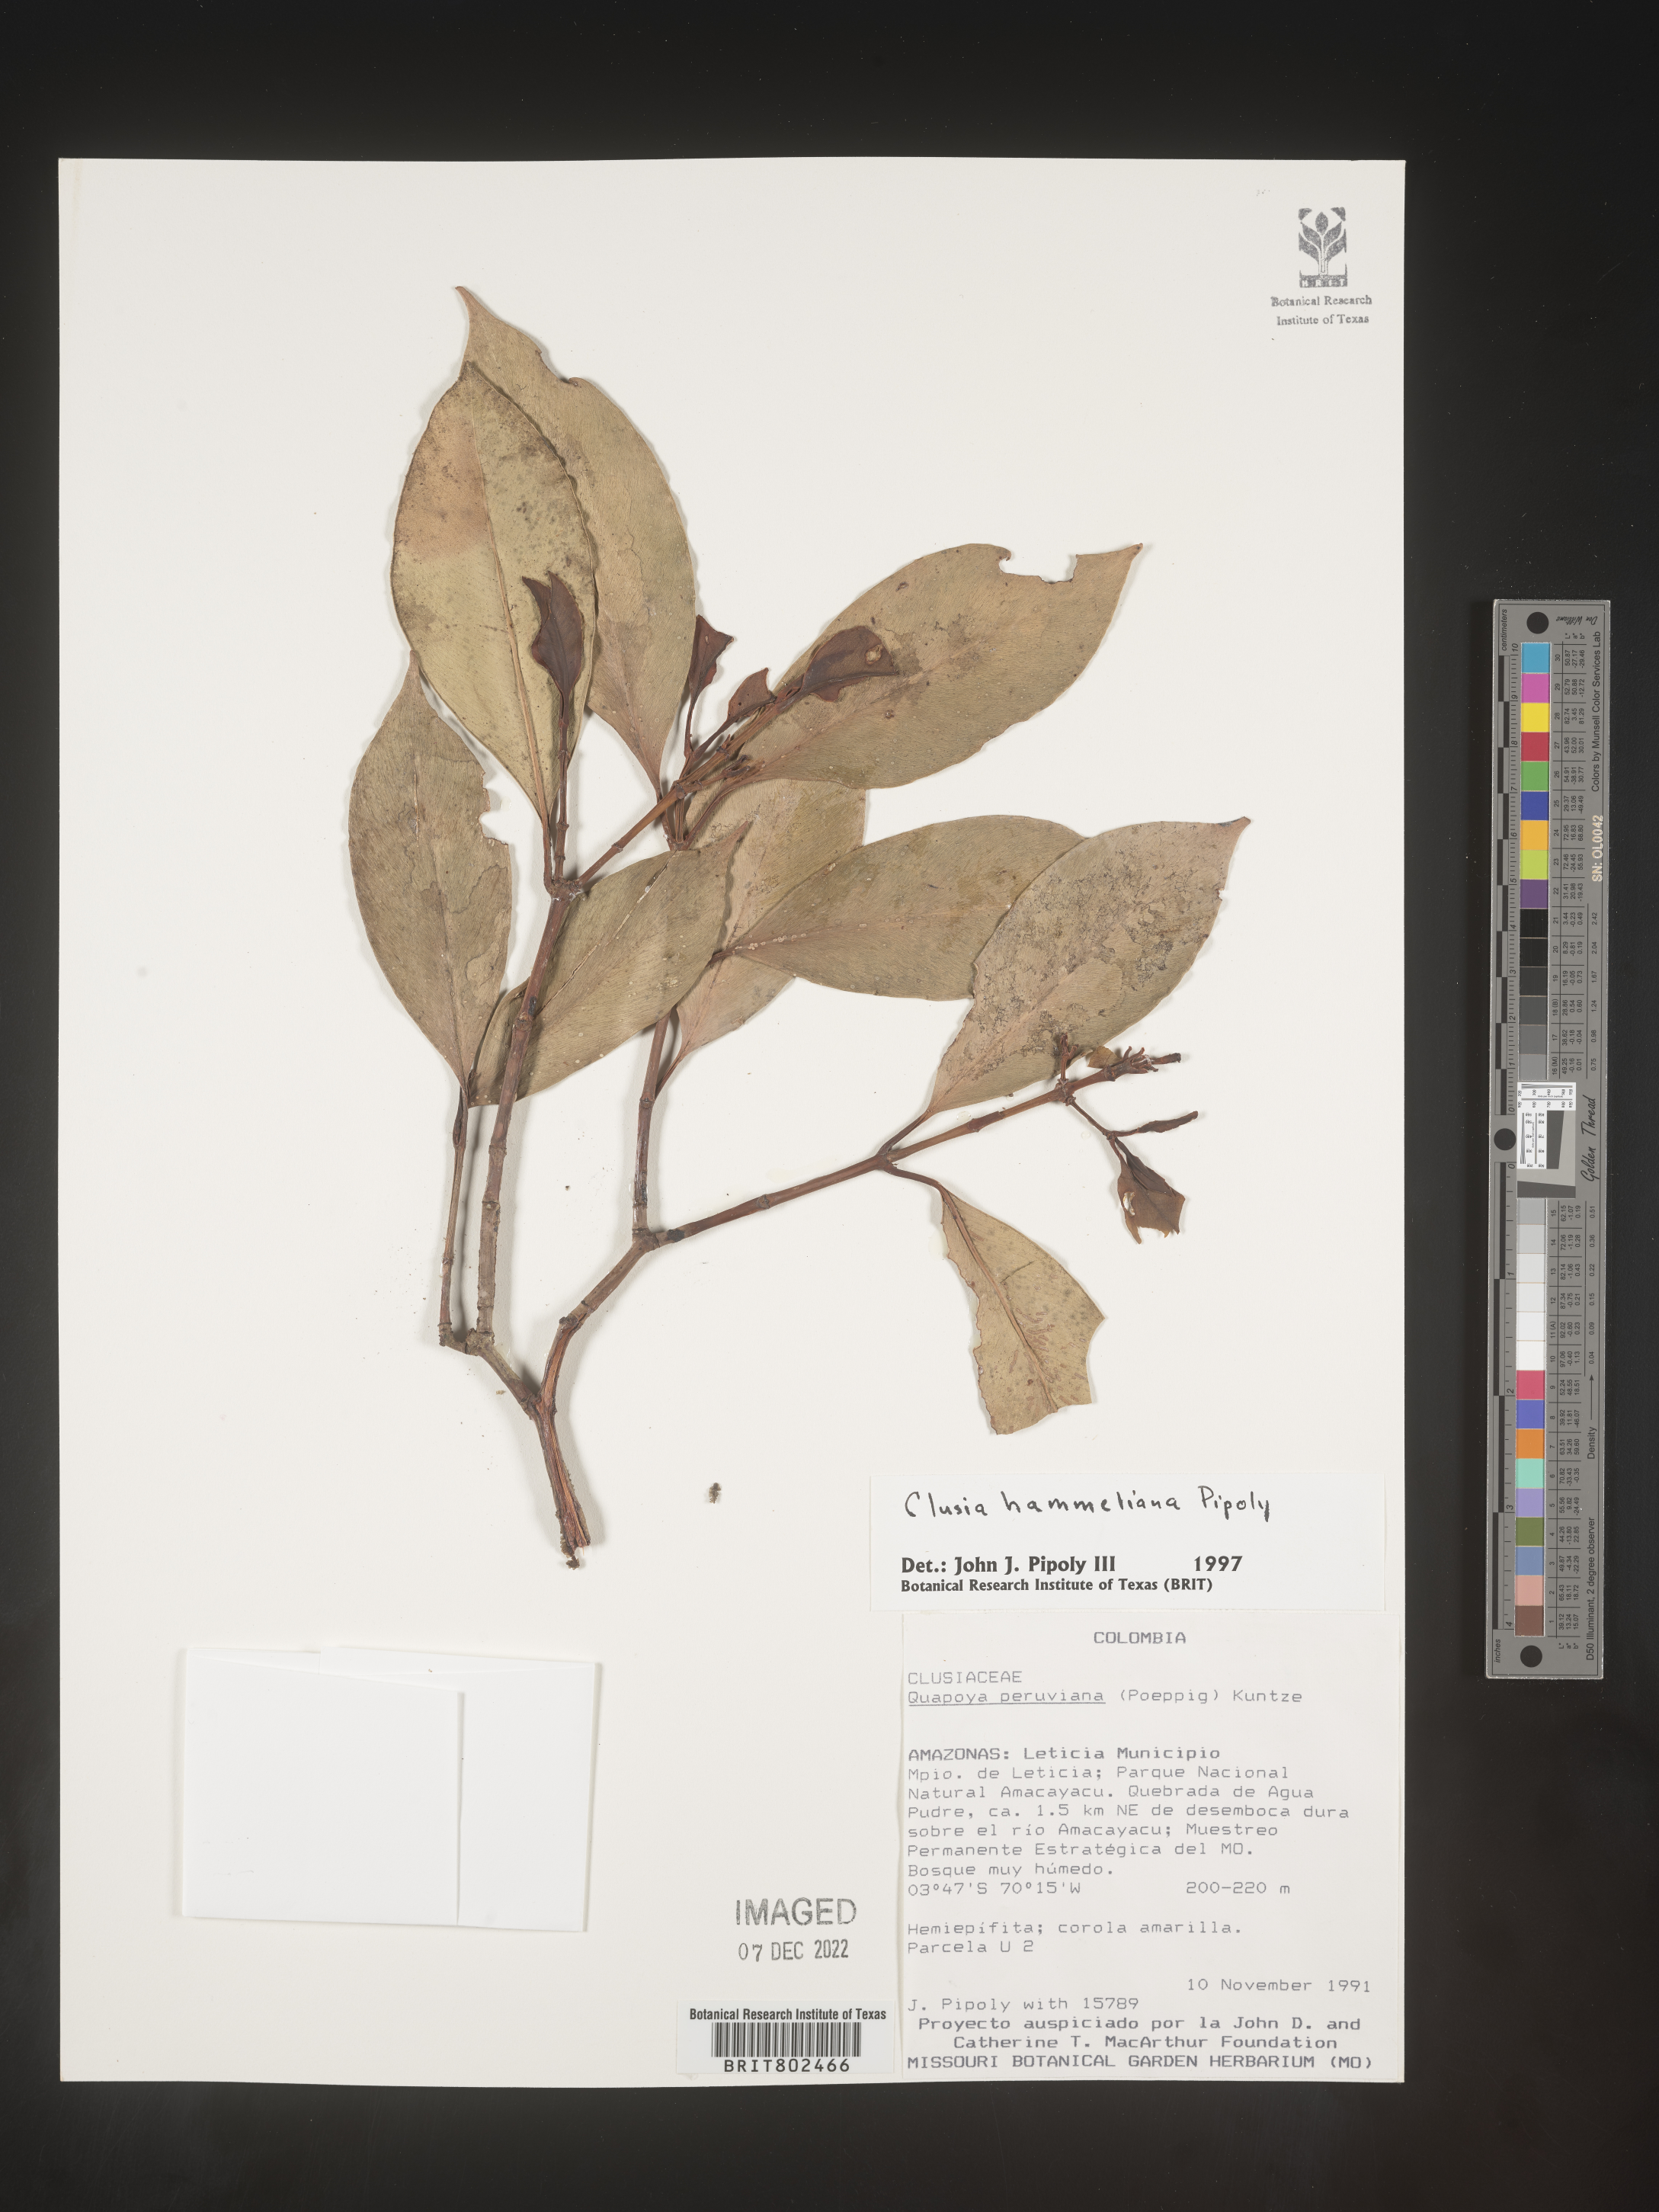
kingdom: Plantae
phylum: Tracheophyta
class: Magnoliopsida
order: Malpighiales
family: Clusiaceae
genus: Clusia
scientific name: Clusia hammeliana
